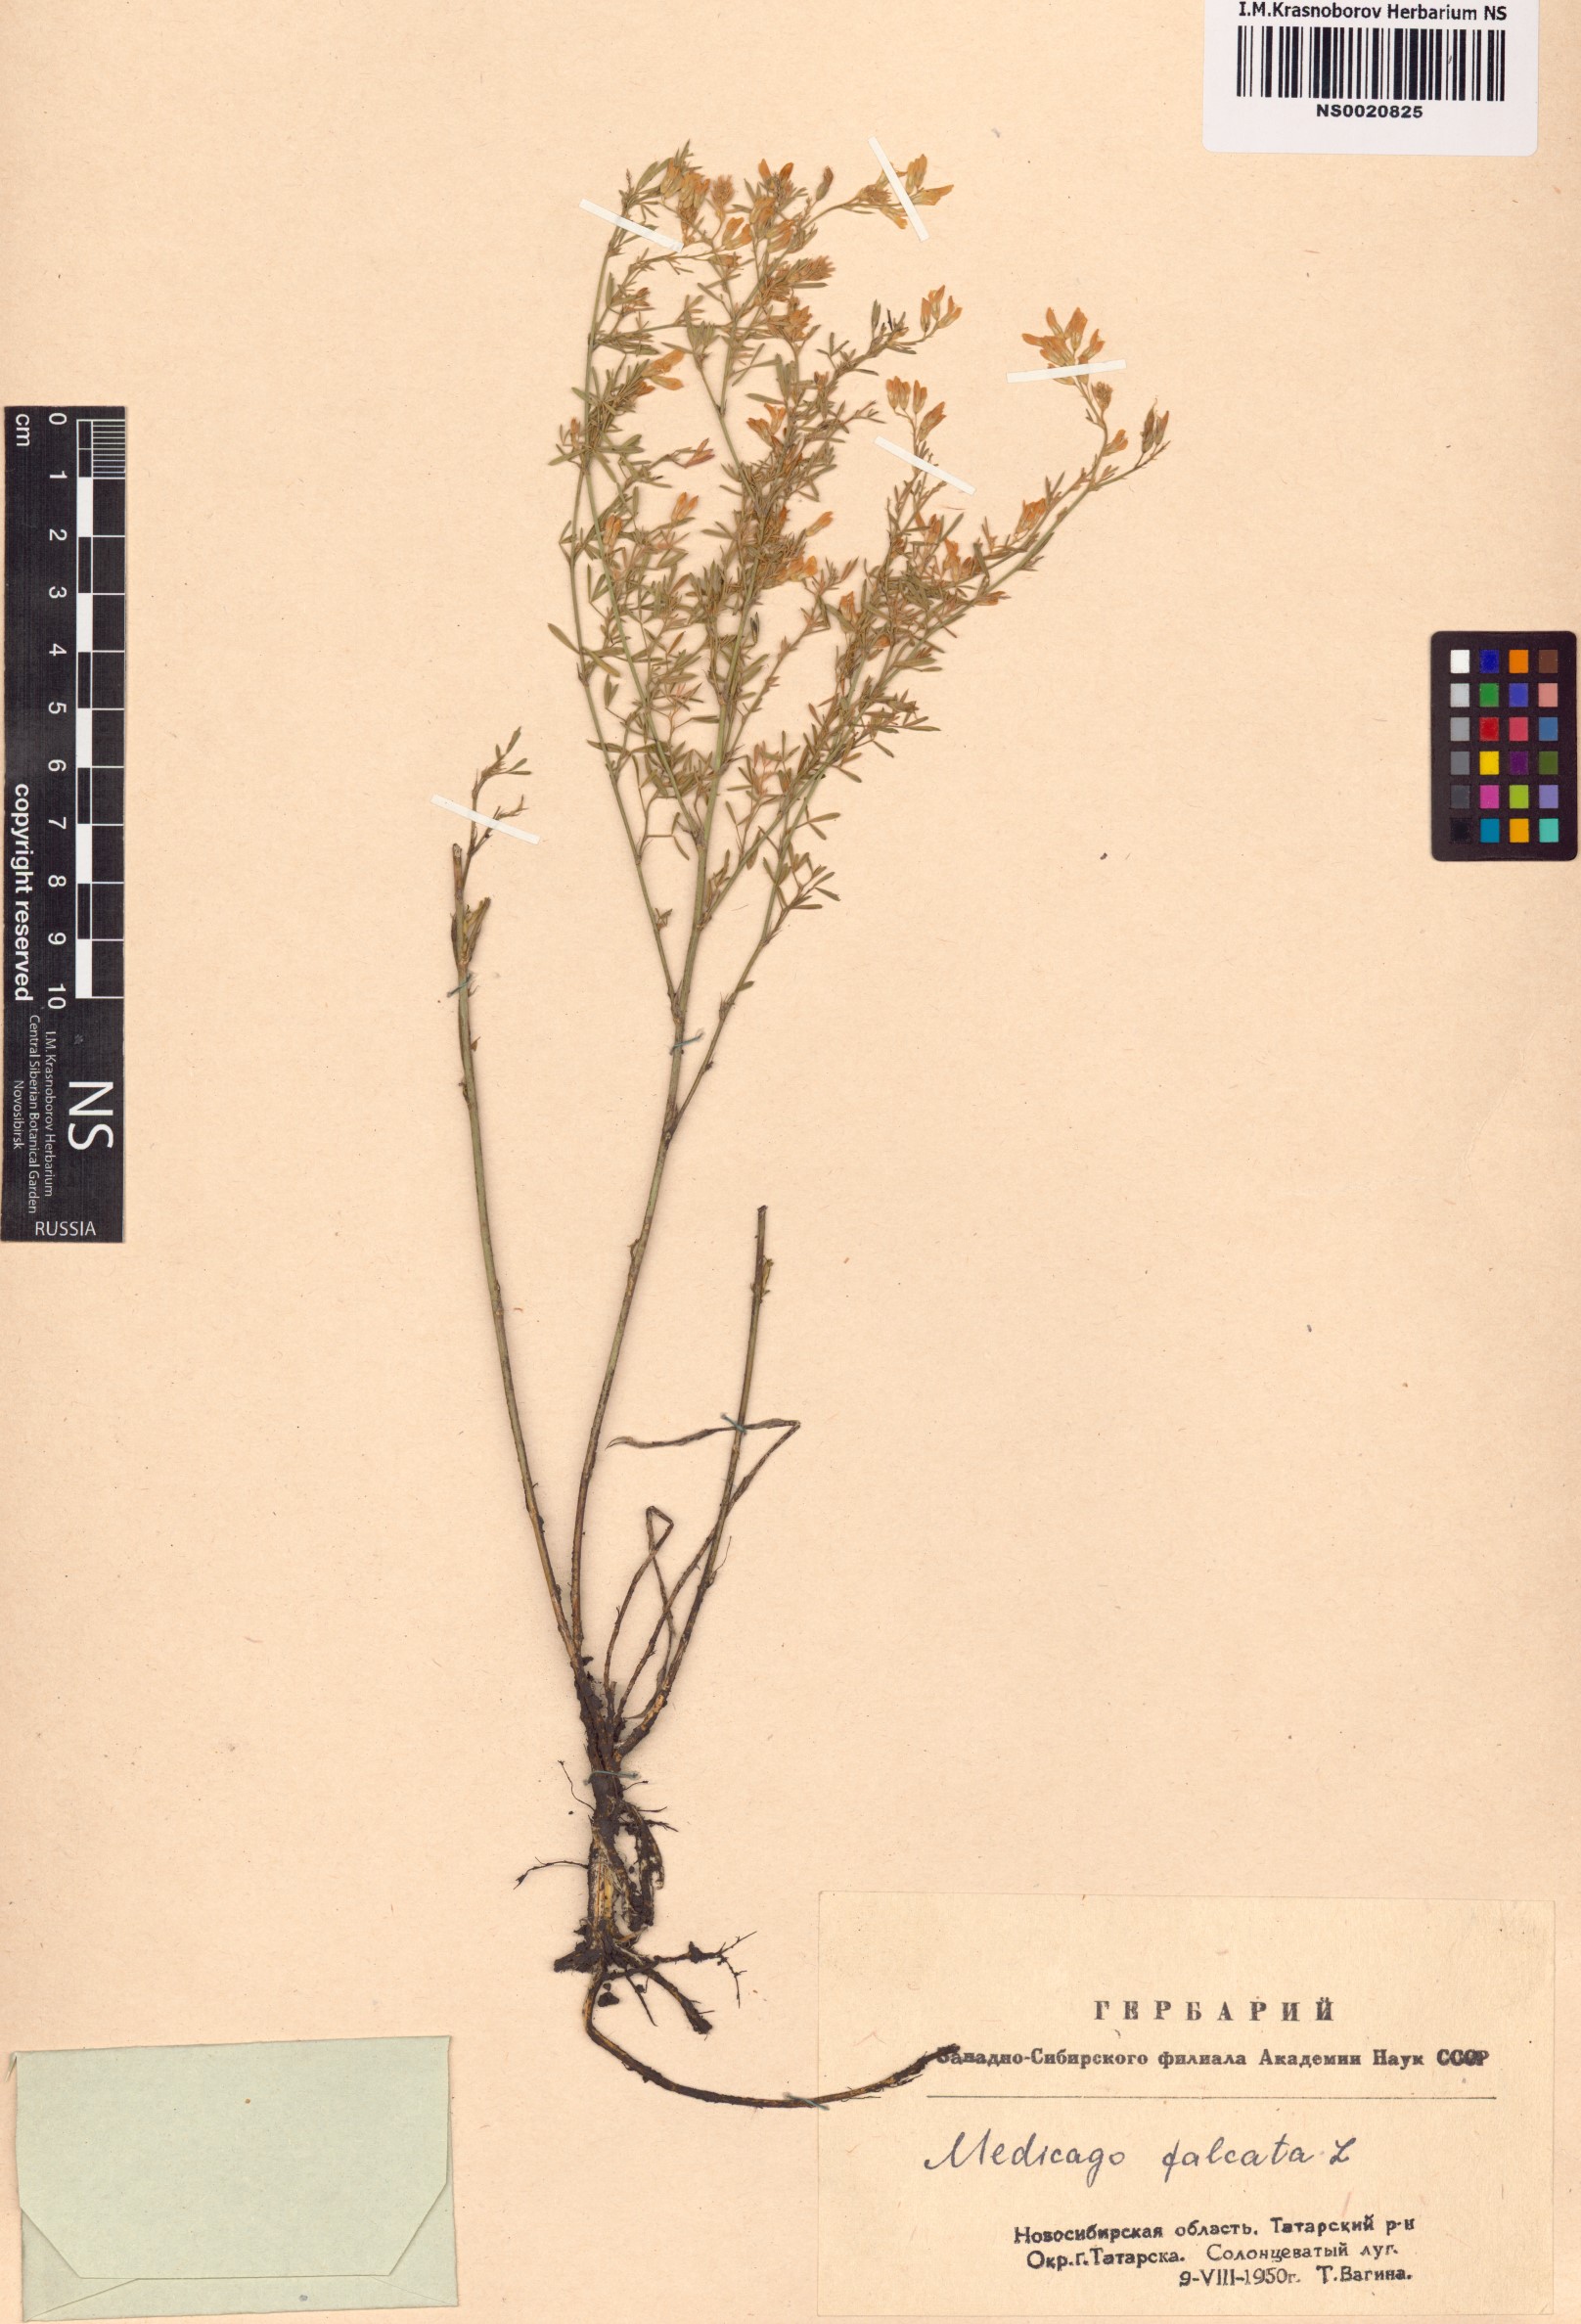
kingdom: Plantae
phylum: Tracheophyta
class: Magnoliopsida
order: Fabales
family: Fabaceae
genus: Medicago
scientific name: Medicago falcata
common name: Sickle medick
